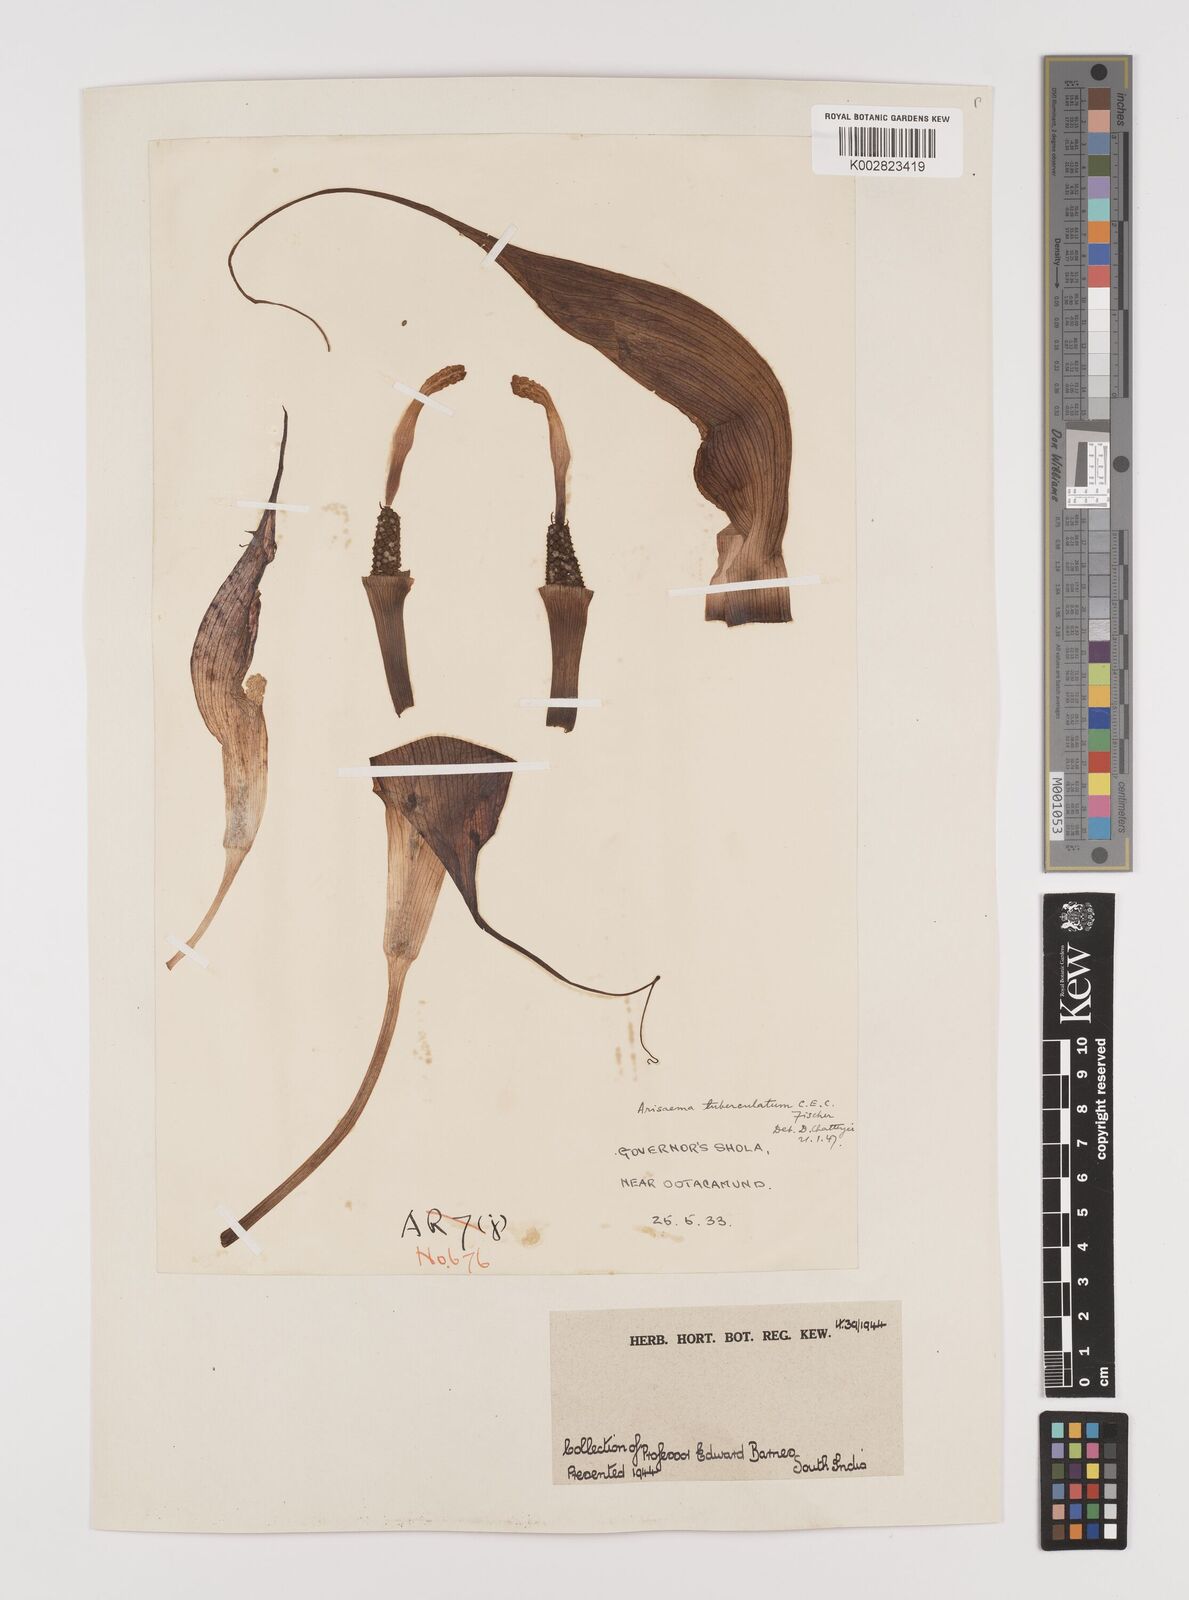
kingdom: Plantae
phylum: Tracheophyta
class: Liliopsida
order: Alismatales
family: Araceae
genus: Arisaema
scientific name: Arisaema tuberculatum
